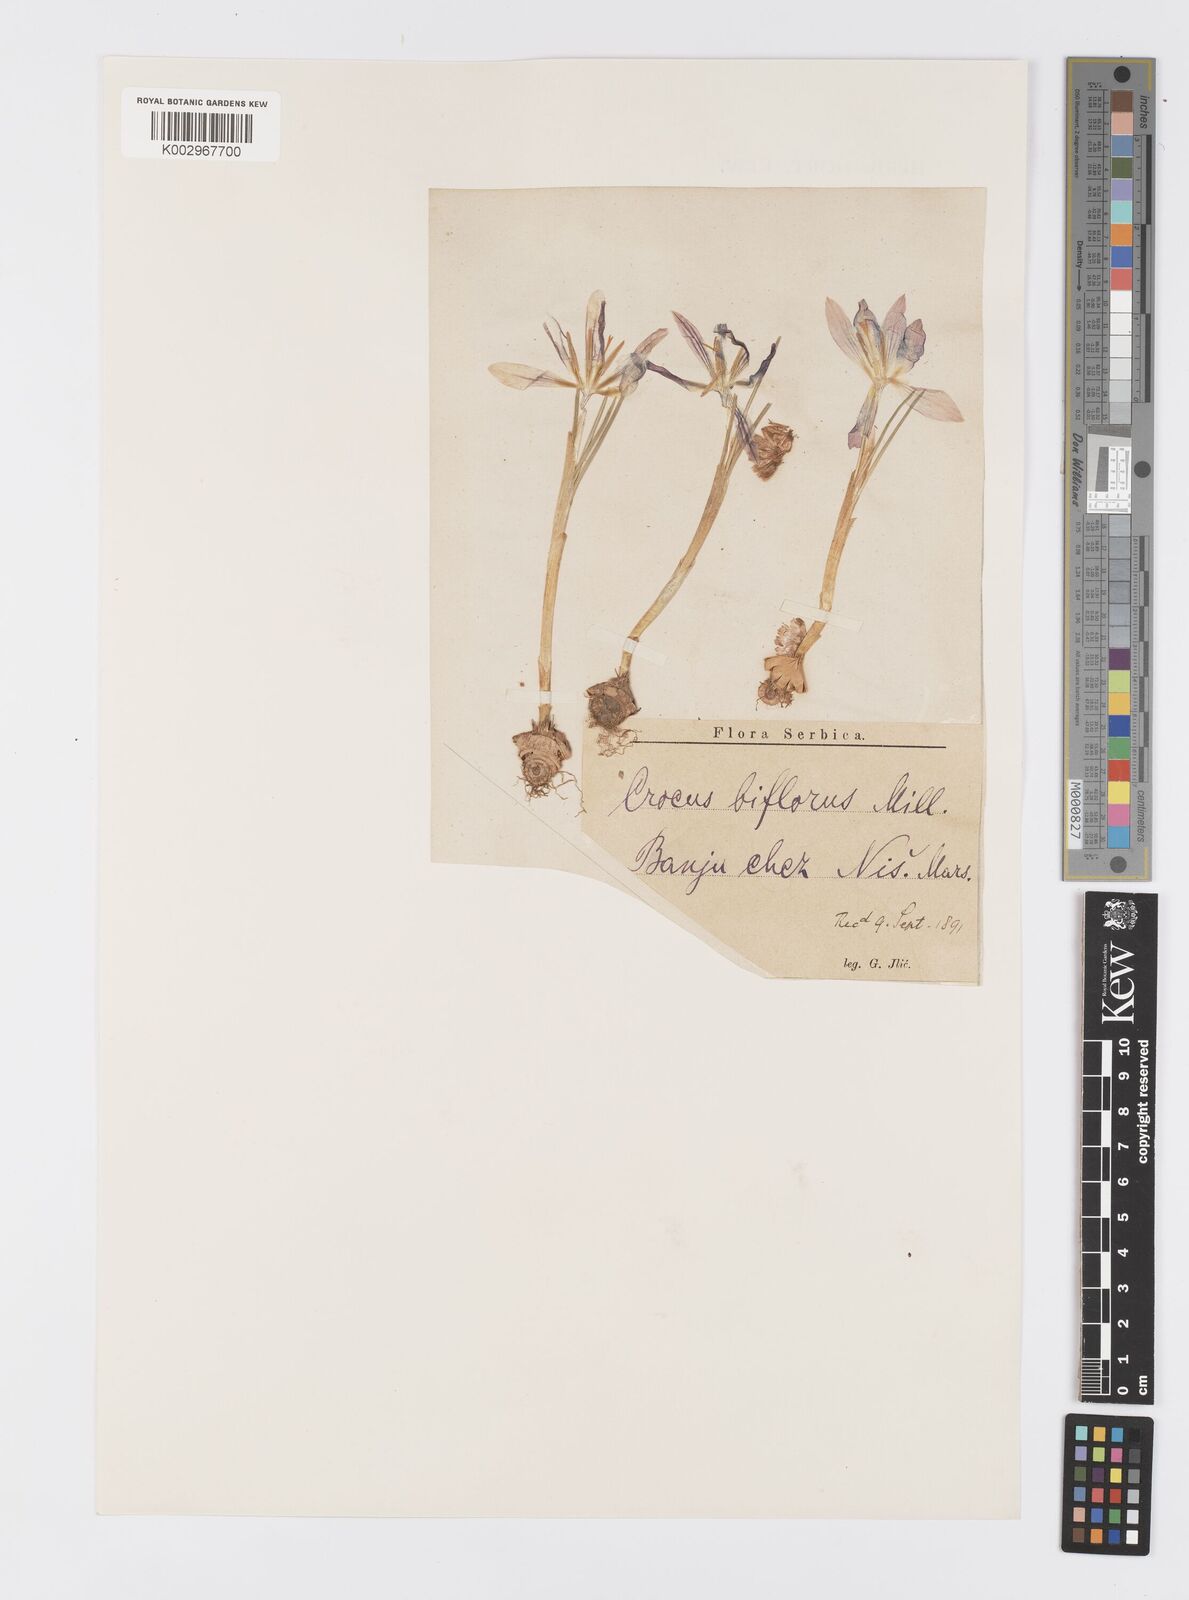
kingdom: Plantae
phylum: Tracheophyta
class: Liliopsida
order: Asparagales
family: Iridaceae
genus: Crocus
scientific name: Crocus adami
